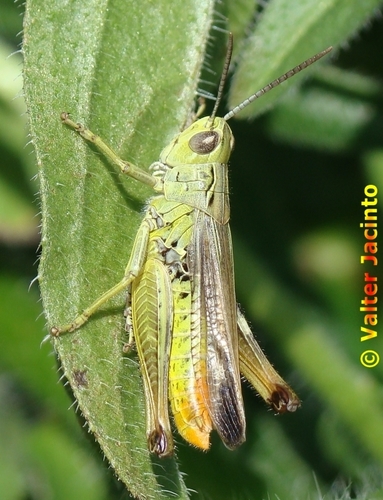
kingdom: Animalia
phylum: Arthropoda
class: Insecta
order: Orthoptera
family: Acrididae
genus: Chorthippus
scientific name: Chorthippus apicalis
